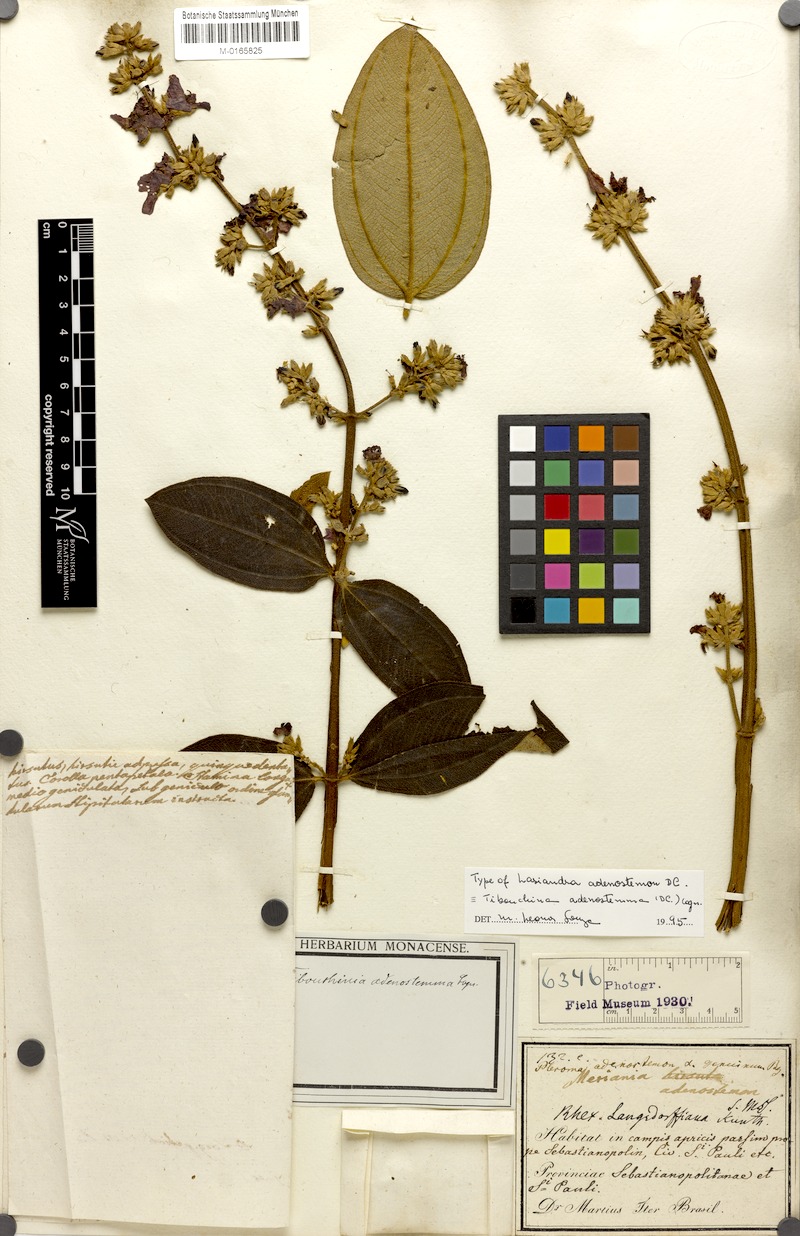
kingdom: Plantae
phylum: Tracheophyta
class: Magnoliopsida
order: Myrtales
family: Melastomataceae
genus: Pleroma
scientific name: Pleroma heteromallum
